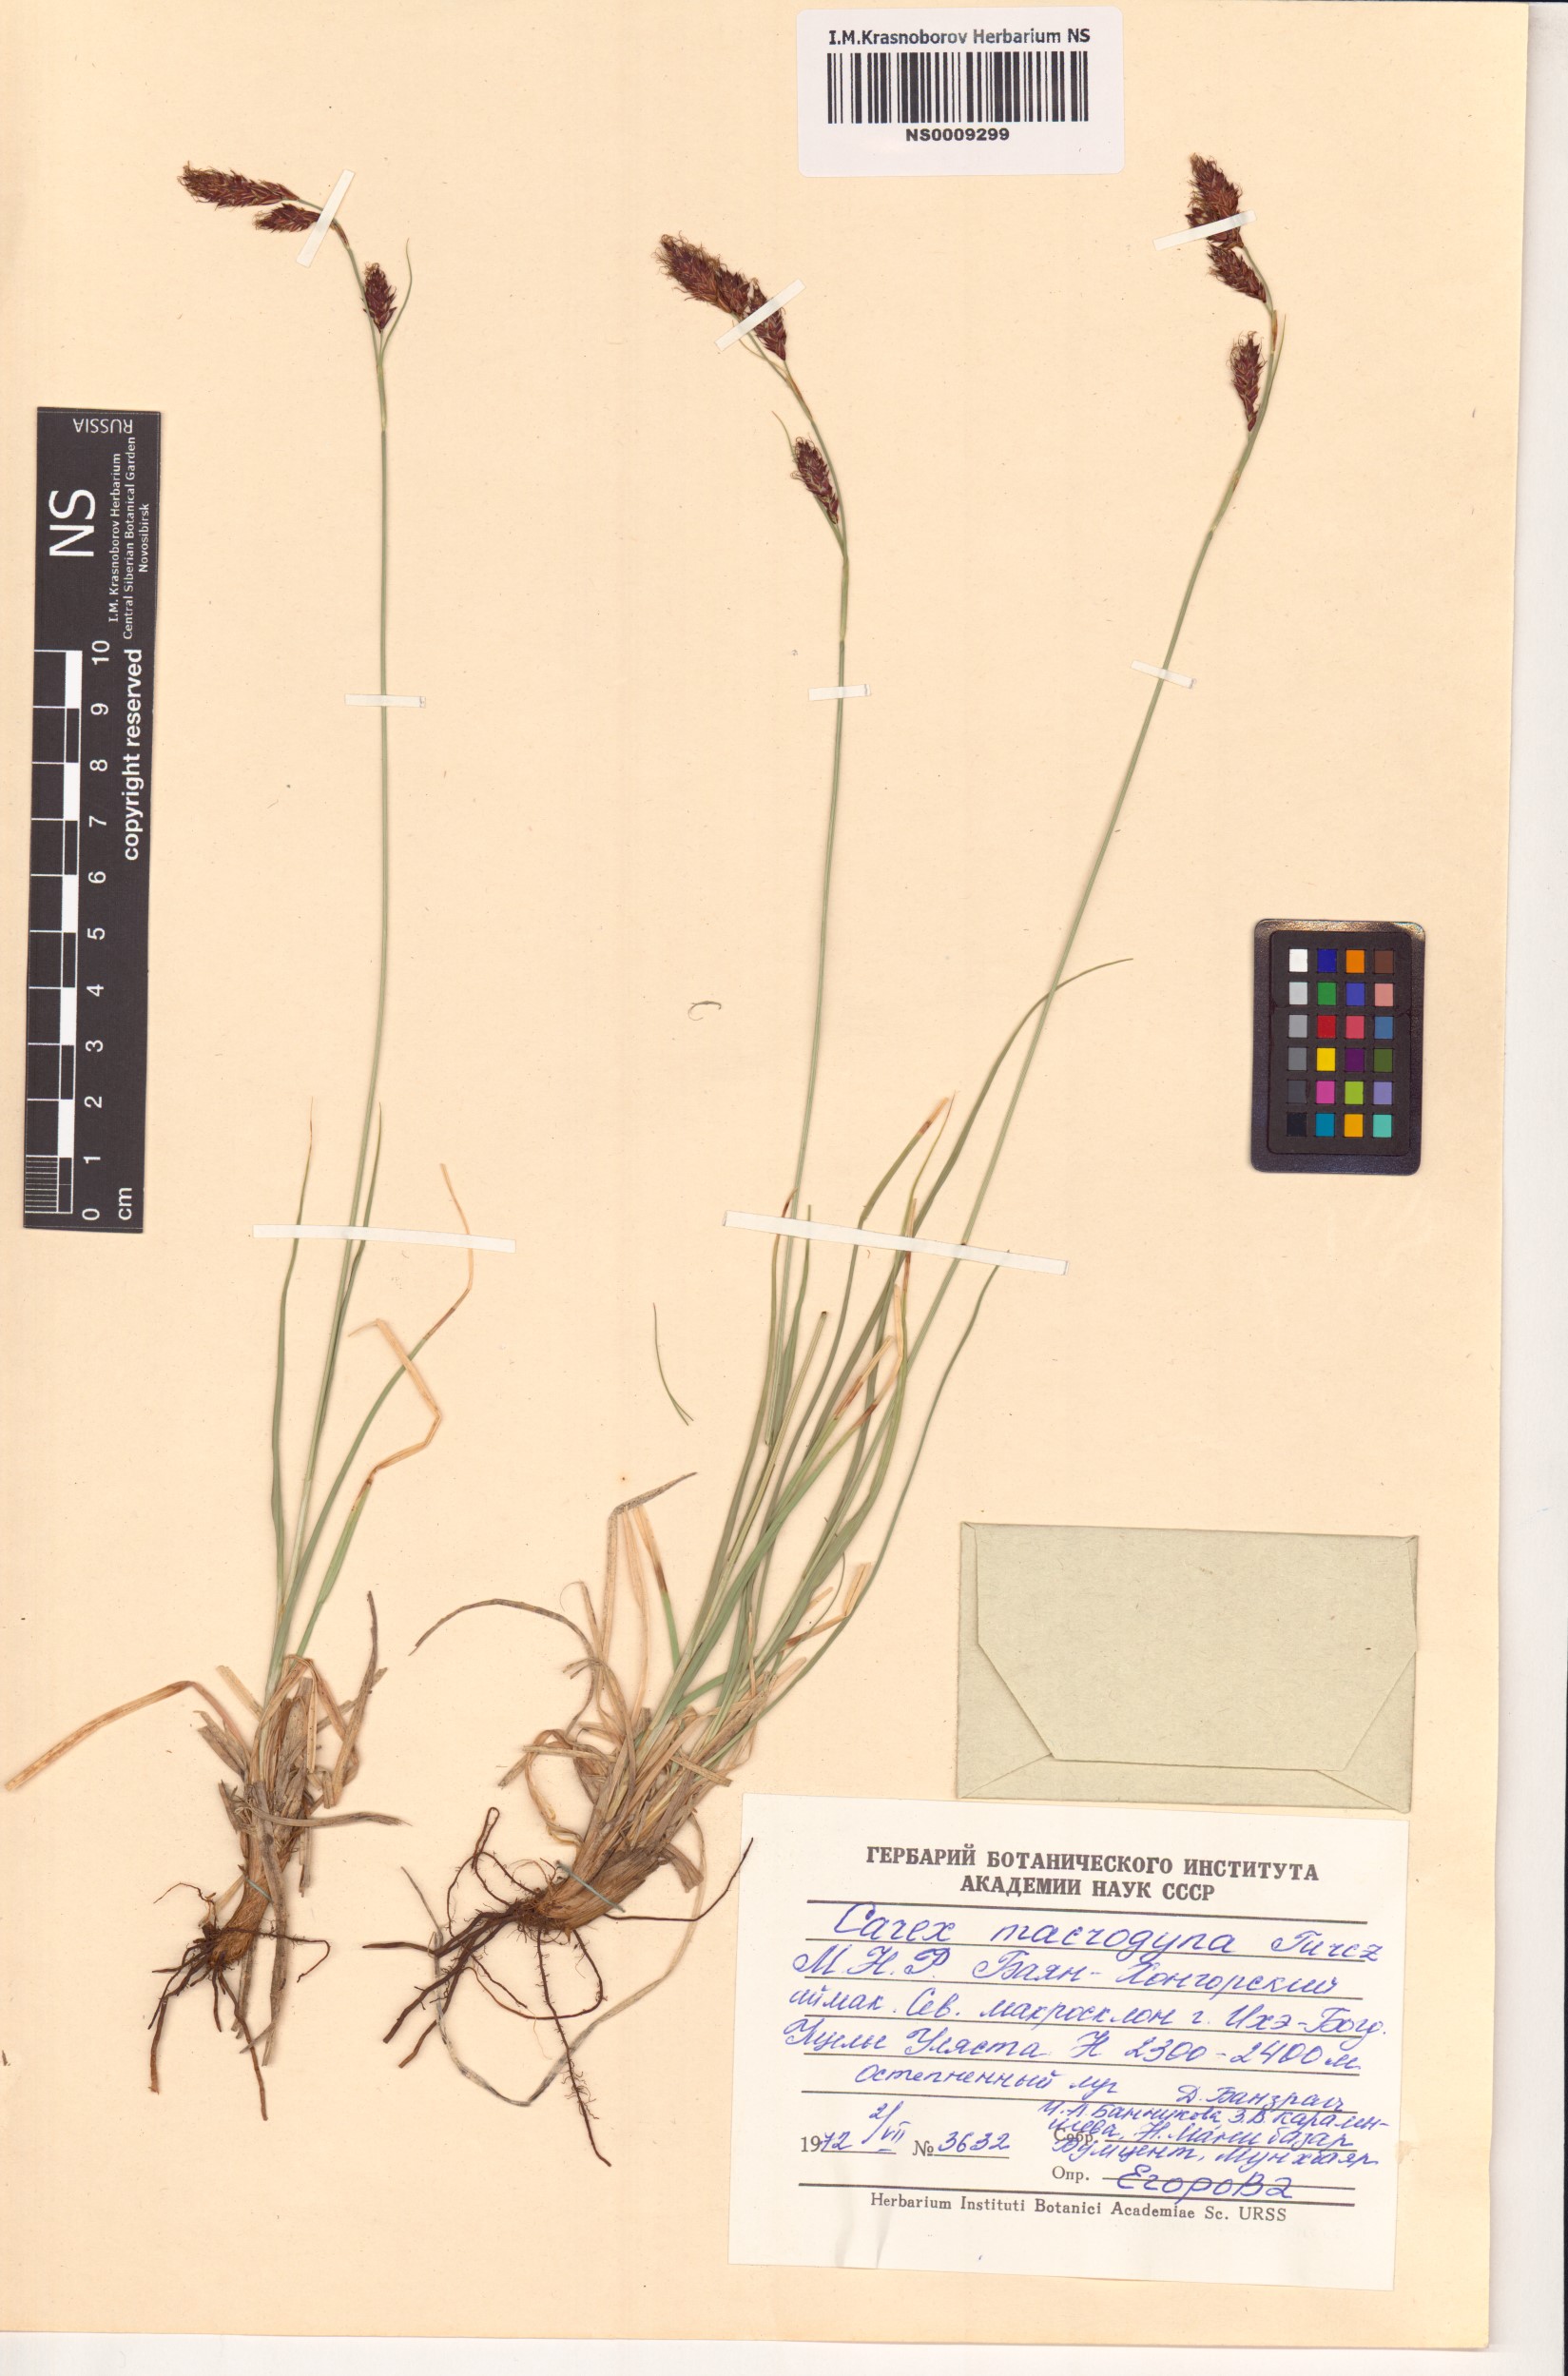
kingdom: Plantae
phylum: Tracheophyta
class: Liliopsida
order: Poales
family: Cyperaceae
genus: Carex
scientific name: Carex petricosa
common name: Rock sedge
